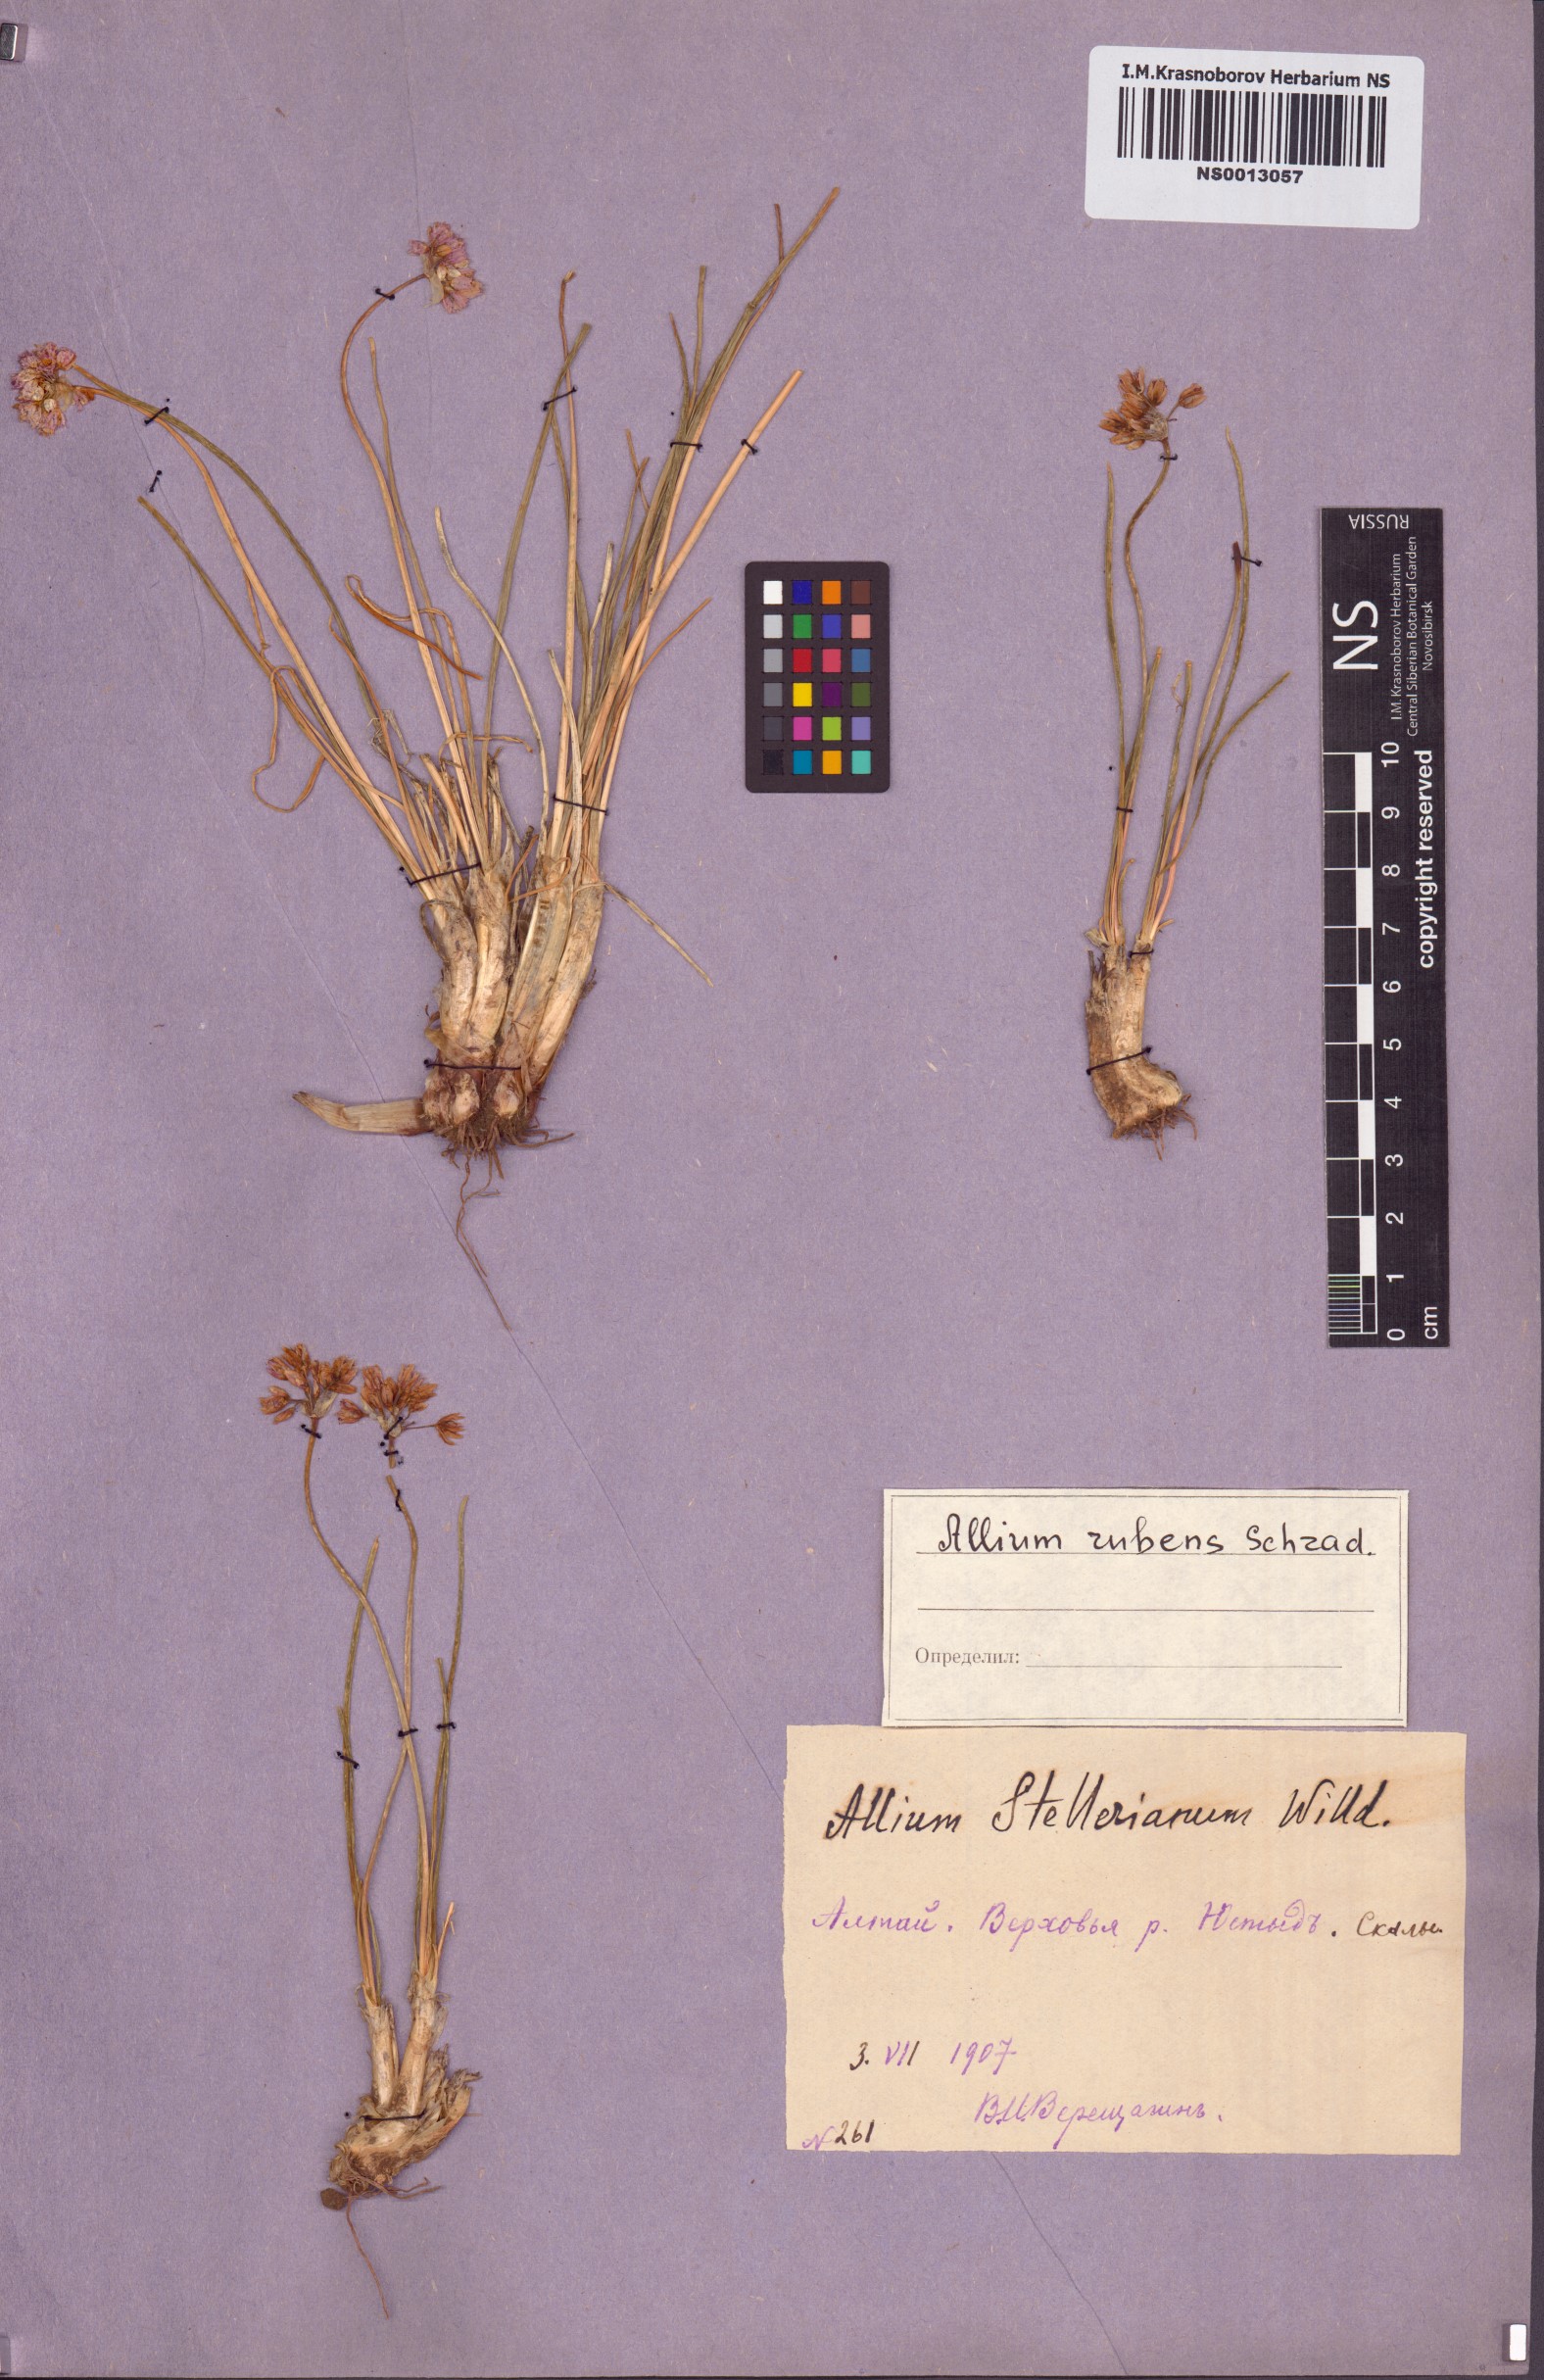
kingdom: Plantae
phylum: Tracheophyta
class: Liliopsida
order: Asparagales
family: Amaryllidaceae
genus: Allium
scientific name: Allium rubens
